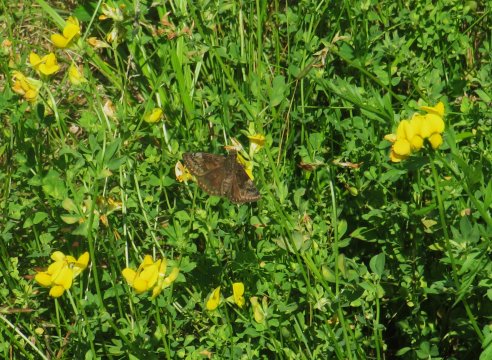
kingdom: Animalia
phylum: Arthropoda
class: Insecta
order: Lepidoptera
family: Hesperiidae
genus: Gesta
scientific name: Gesta
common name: Wild Indigo Duskywing
